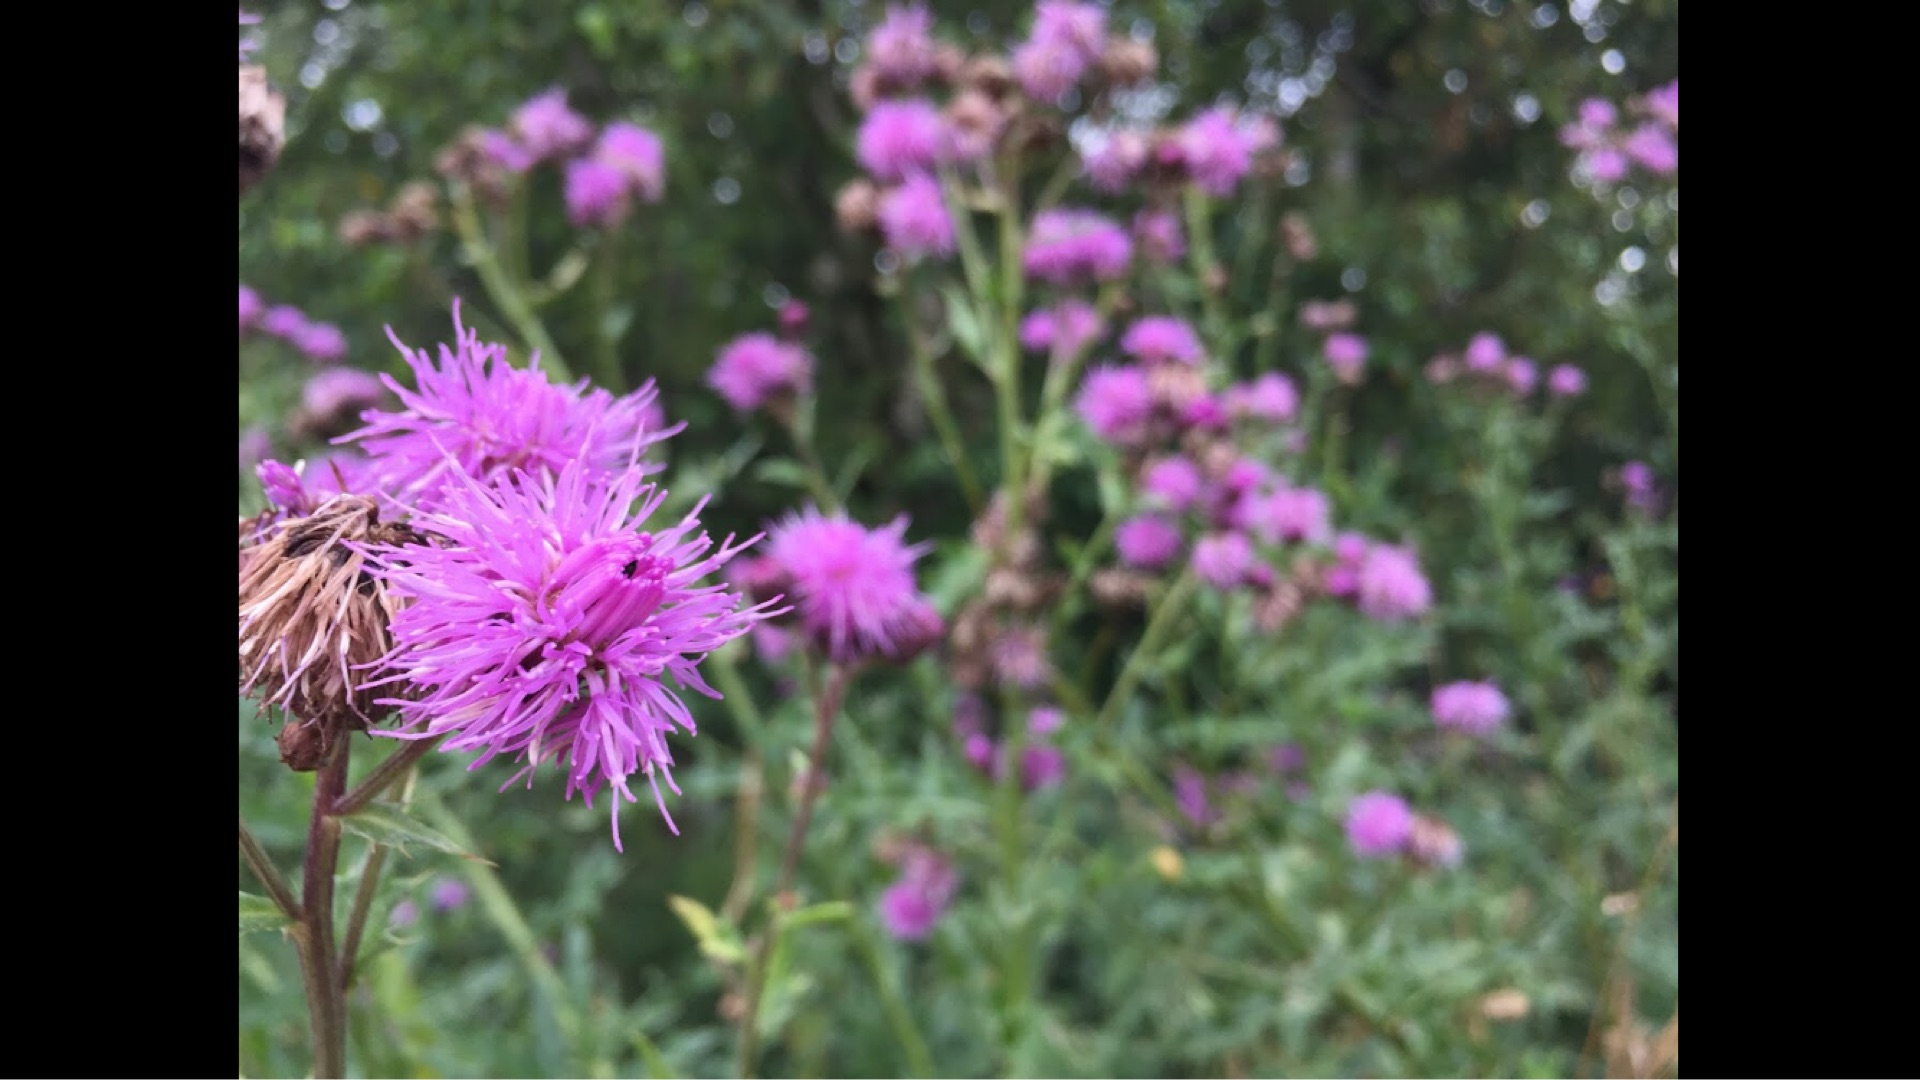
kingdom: Plantae
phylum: Tracheophyta
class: Magnoliopsida
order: Asterales
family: Asteraceae
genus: Cirsium
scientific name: Cirsium arvense
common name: Ager-tidsel
